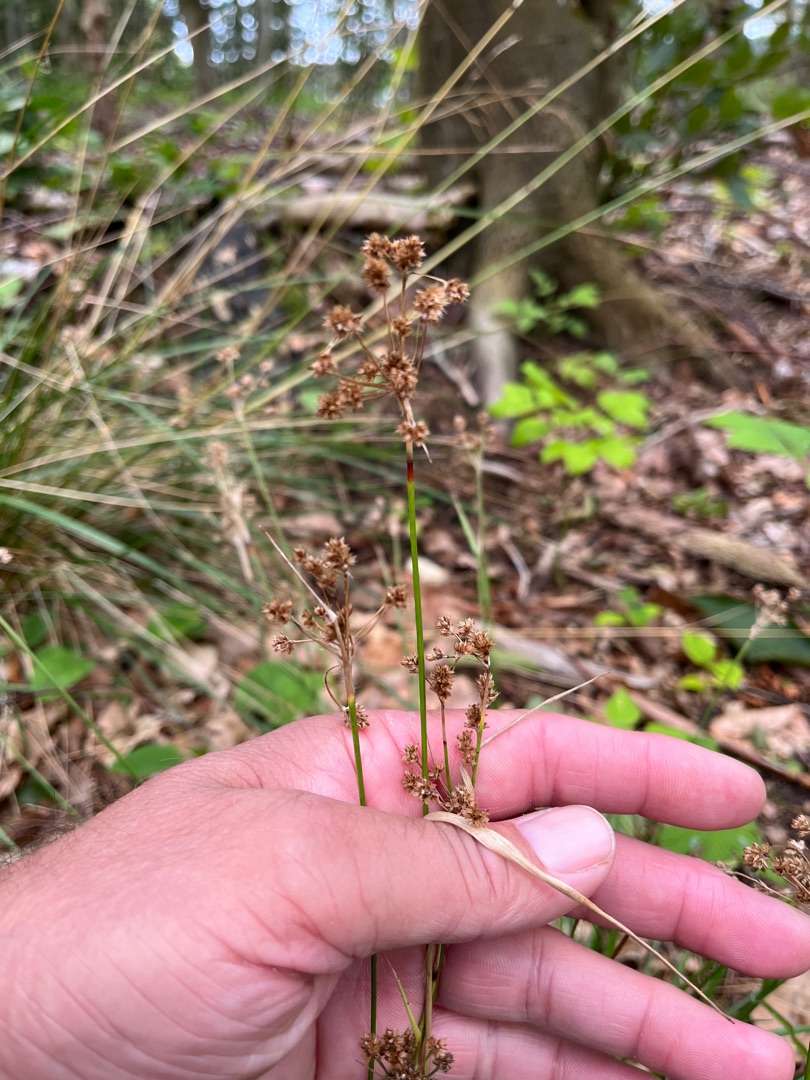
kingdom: Plantae
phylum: Tracheophyta
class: Liliopsida
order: Poales
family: Juncaceae
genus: Luzula
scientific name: Luzula multiflora
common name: Mangeblomstret frytle
